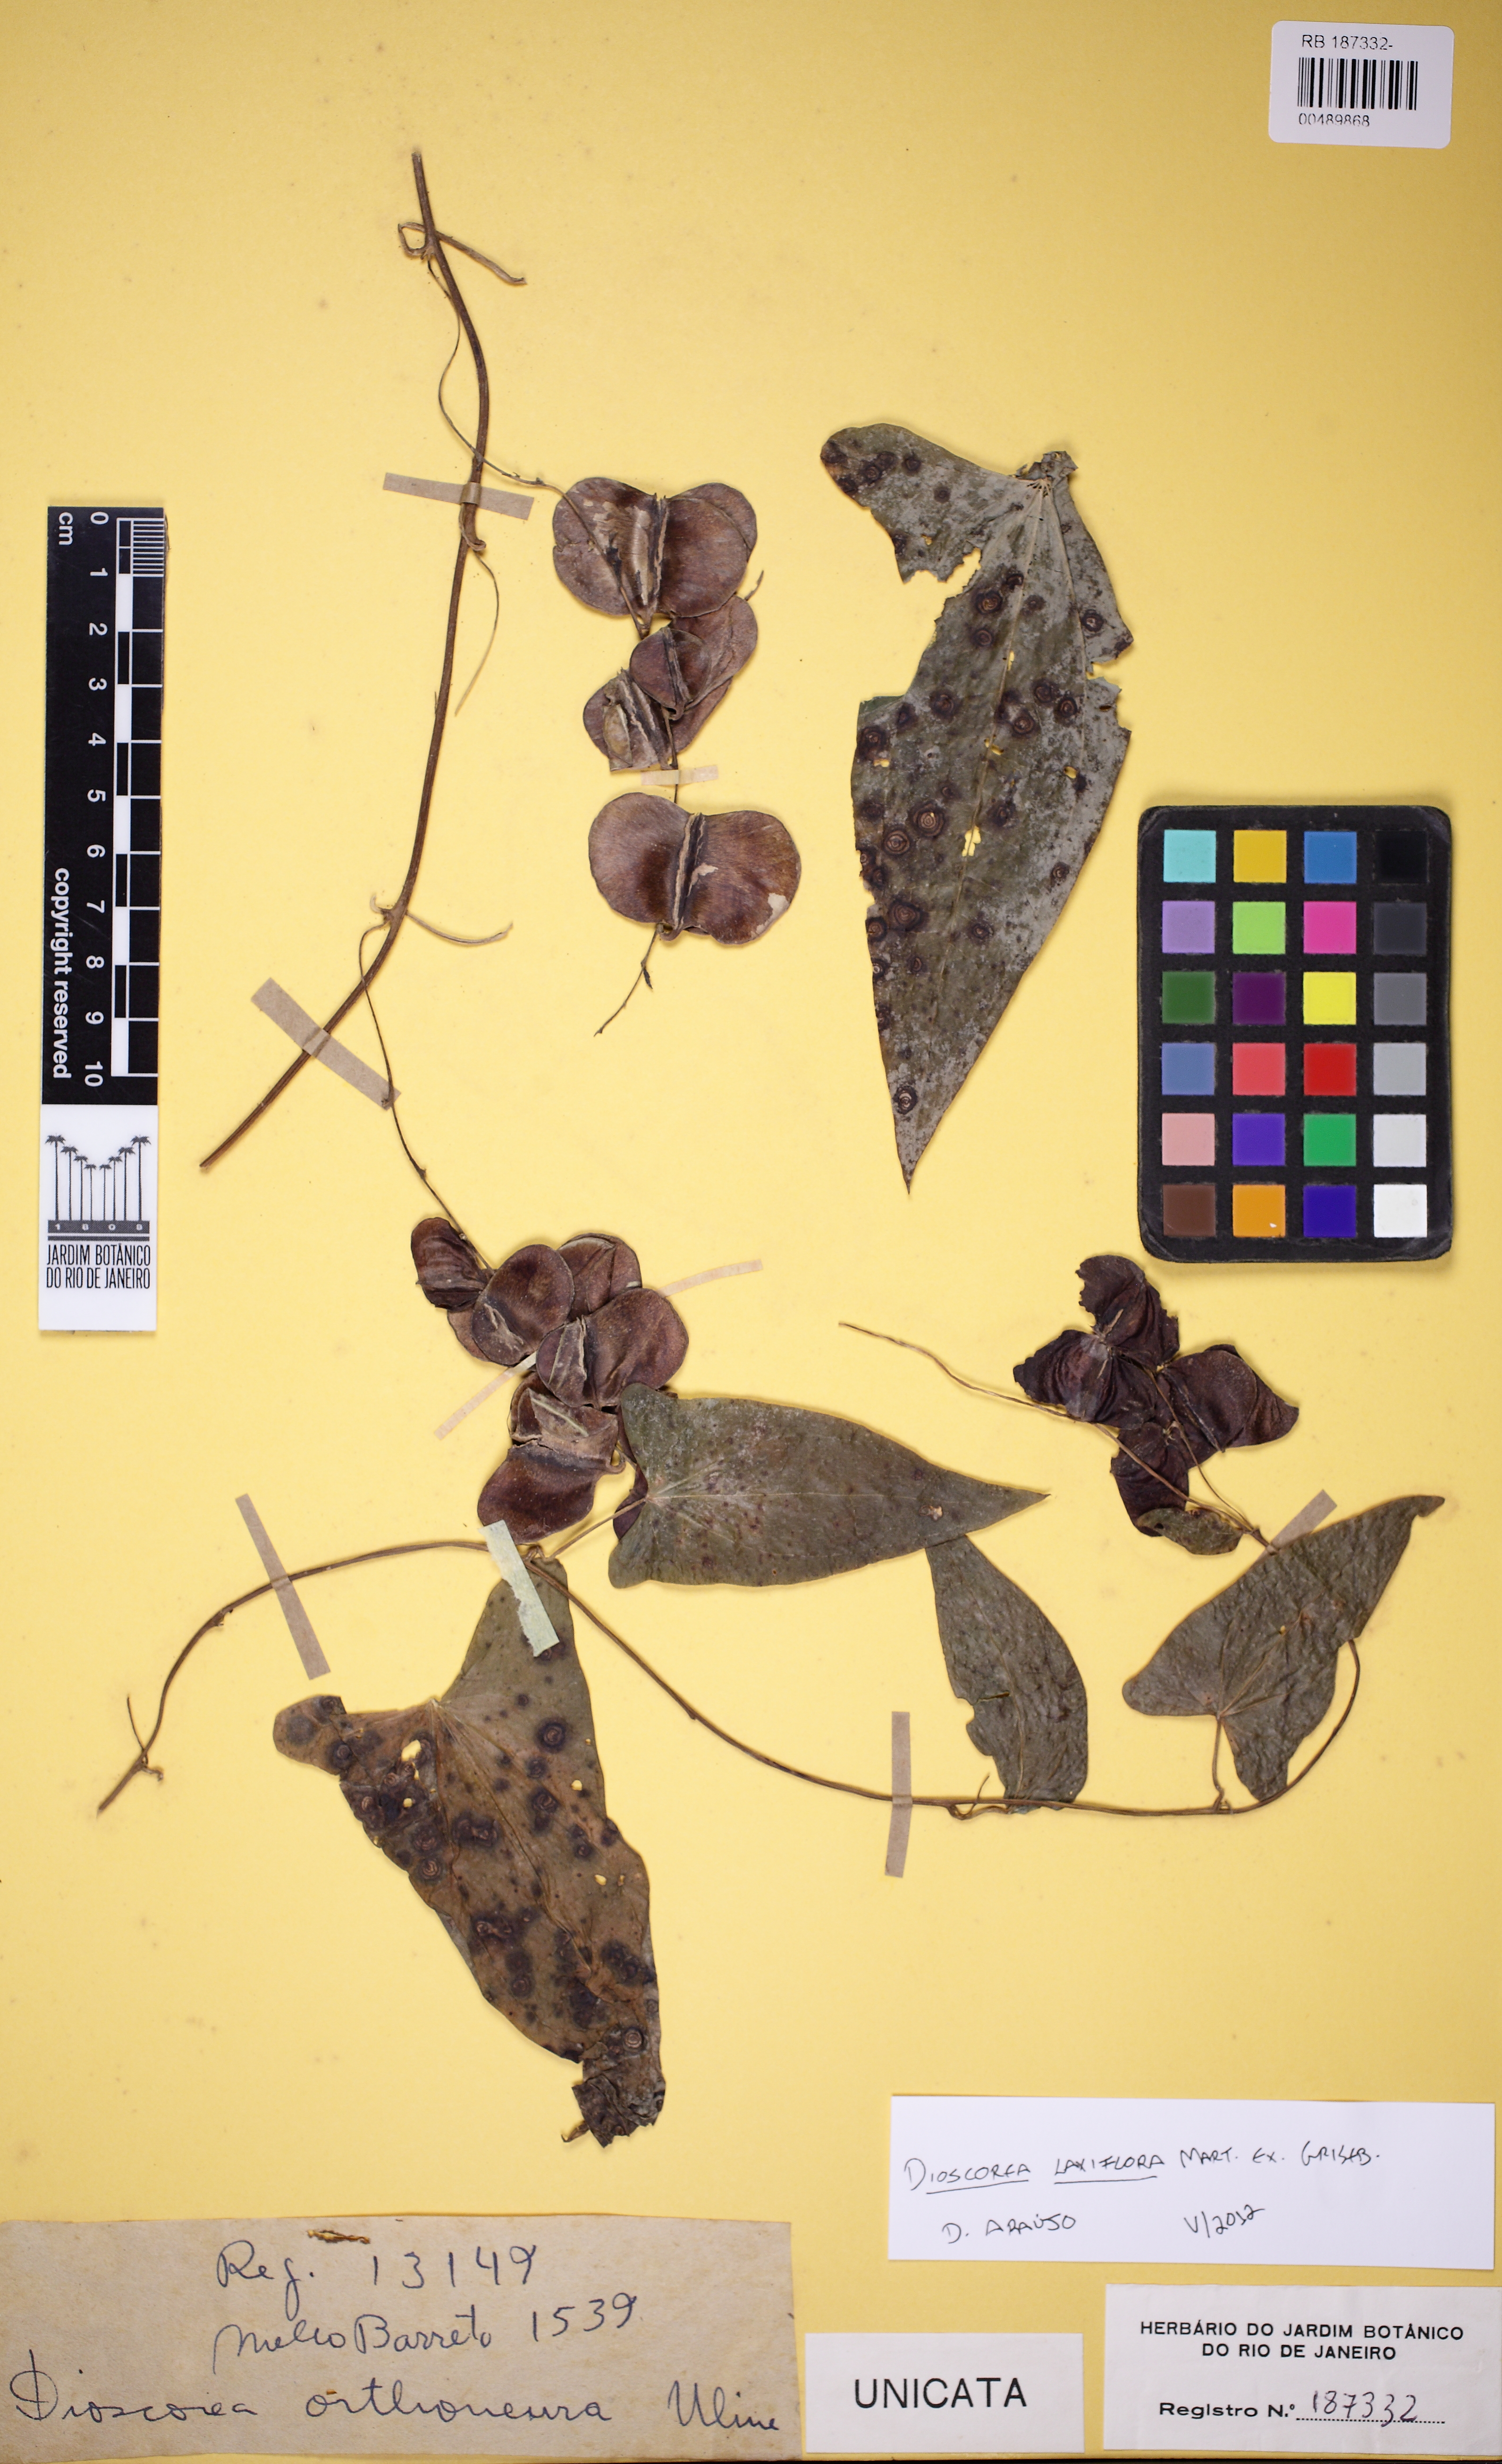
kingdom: Plantae
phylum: Tracheophyta
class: Liliopsida
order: Dioscoreales
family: Dioscoreaceae
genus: Dioscorea
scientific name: Dioscorea laxiflora
